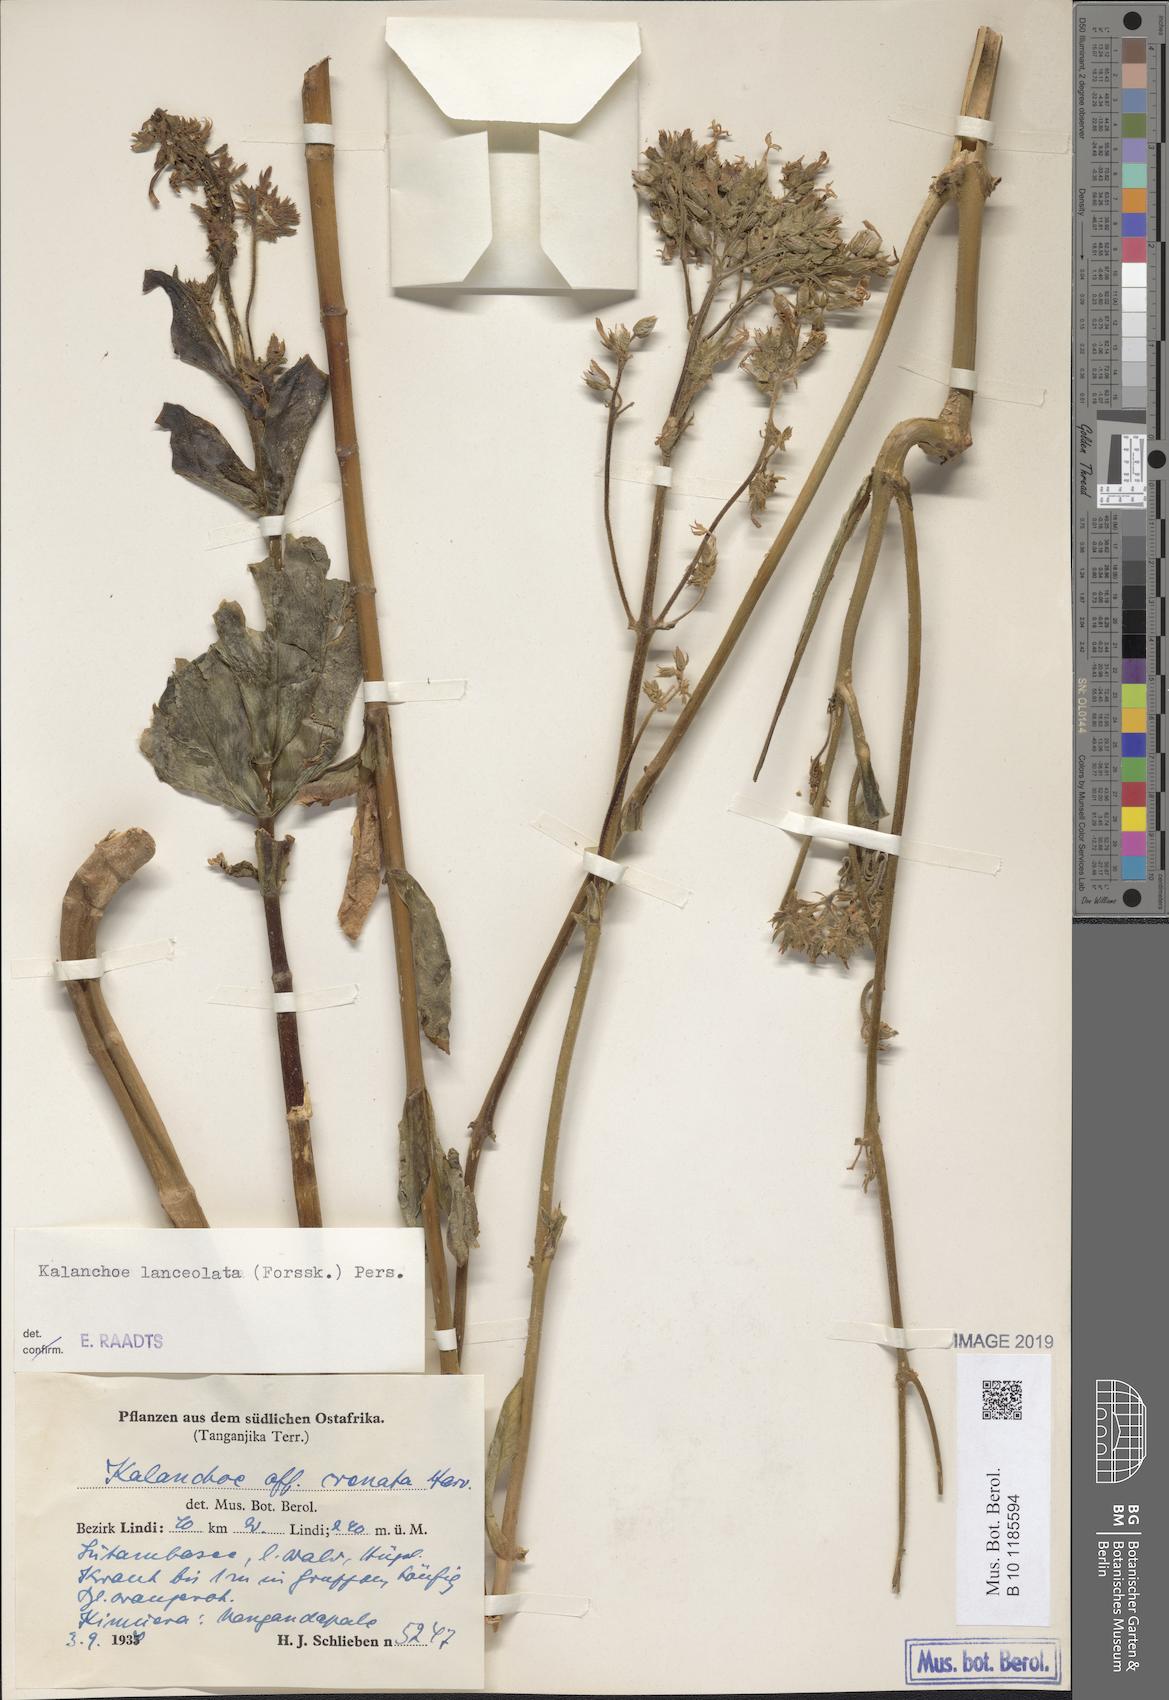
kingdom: Plantae
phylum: Tracheophyta
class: Magnoliopsida
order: Saxifragales
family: Crassulaceae
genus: Kalanchoe
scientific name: Kalanchoe lanceolata
